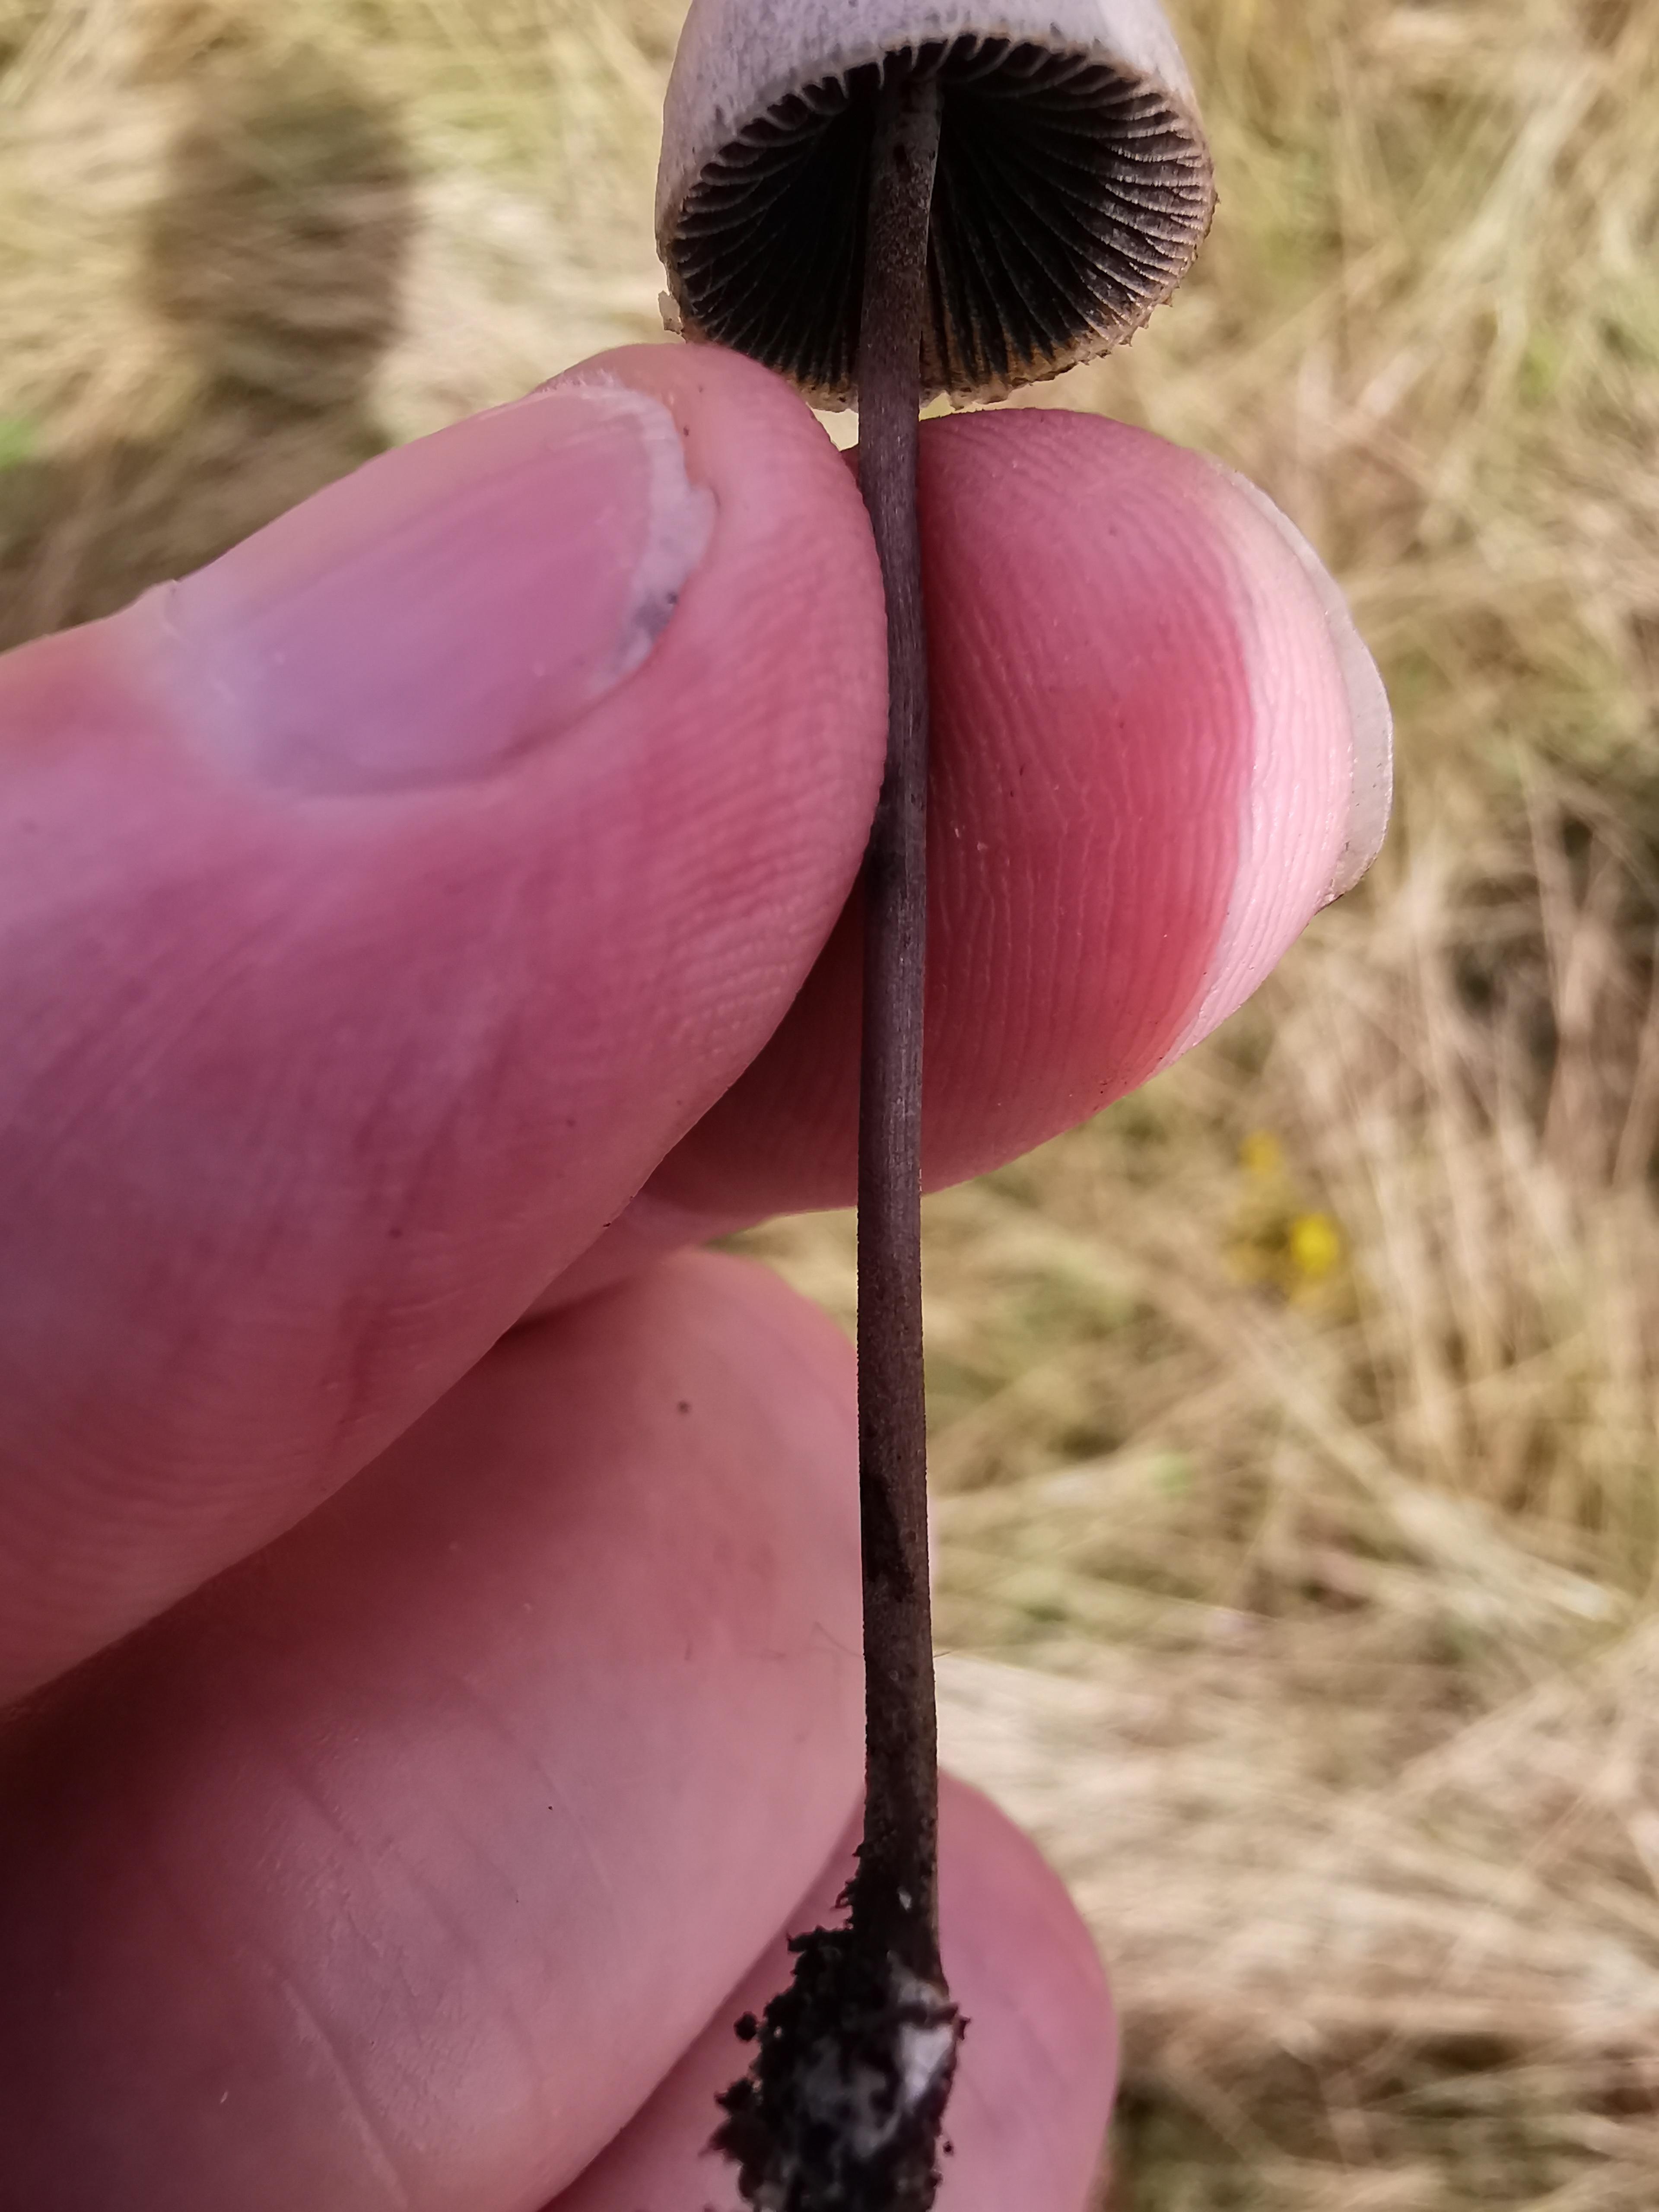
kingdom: Fungi
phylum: Basidiomycota
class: Agaricomycetes
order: Agaricales
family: Bolbitiaceae
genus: Panaeolus
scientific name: Panaeolus papilionaceus
